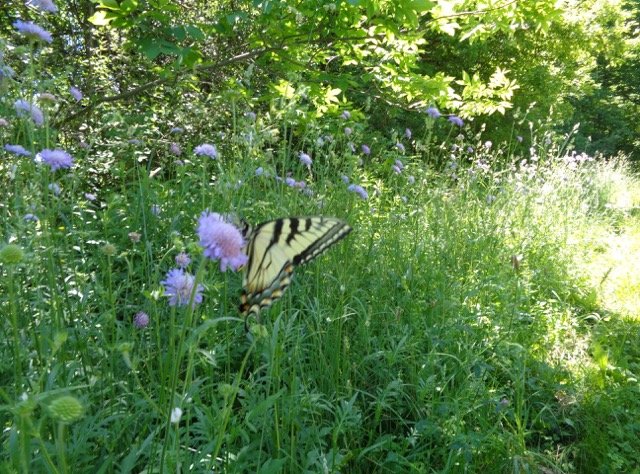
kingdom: Animalia
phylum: Arthropoda
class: Insecta
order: Lepidoptera
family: Papilionidae
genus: Pterourus
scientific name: Pterourus
